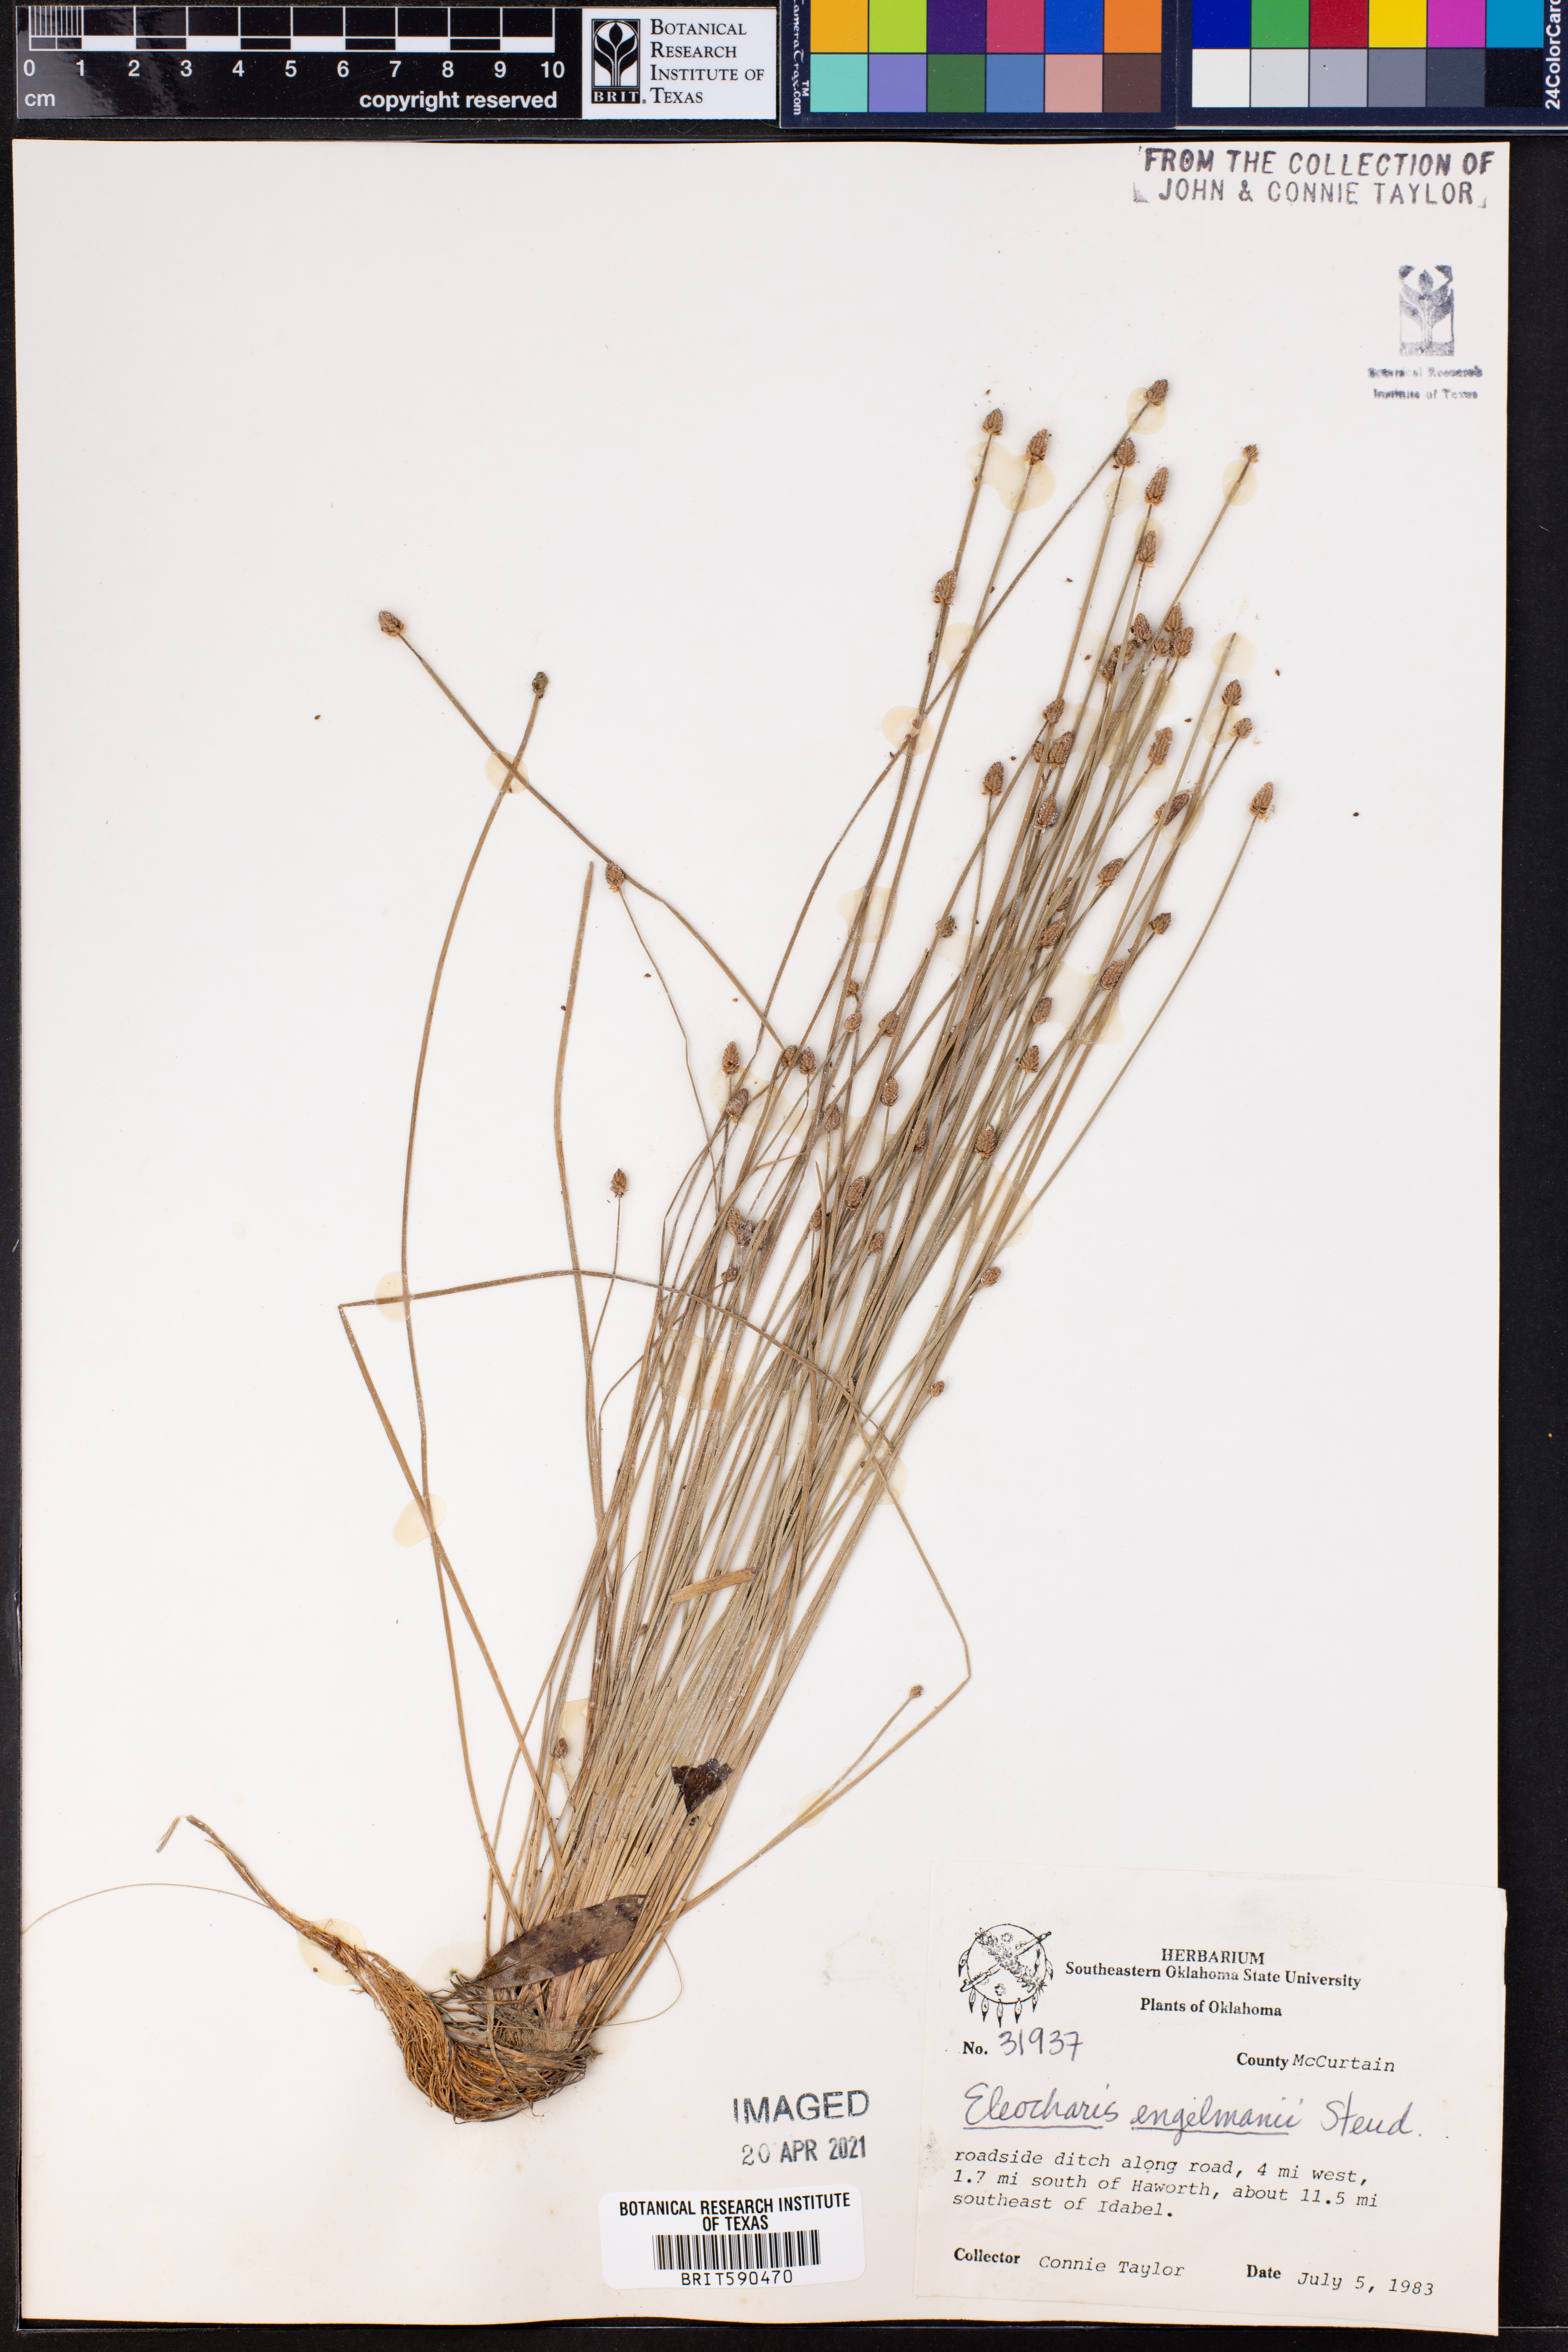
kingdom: Plantae
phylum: Tracheophyta
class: Liliopsida
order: Poales
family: Cyperaceae
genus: Eleocharis
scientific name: Eleocharis engelmannii
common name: Engelmann's spikerush
